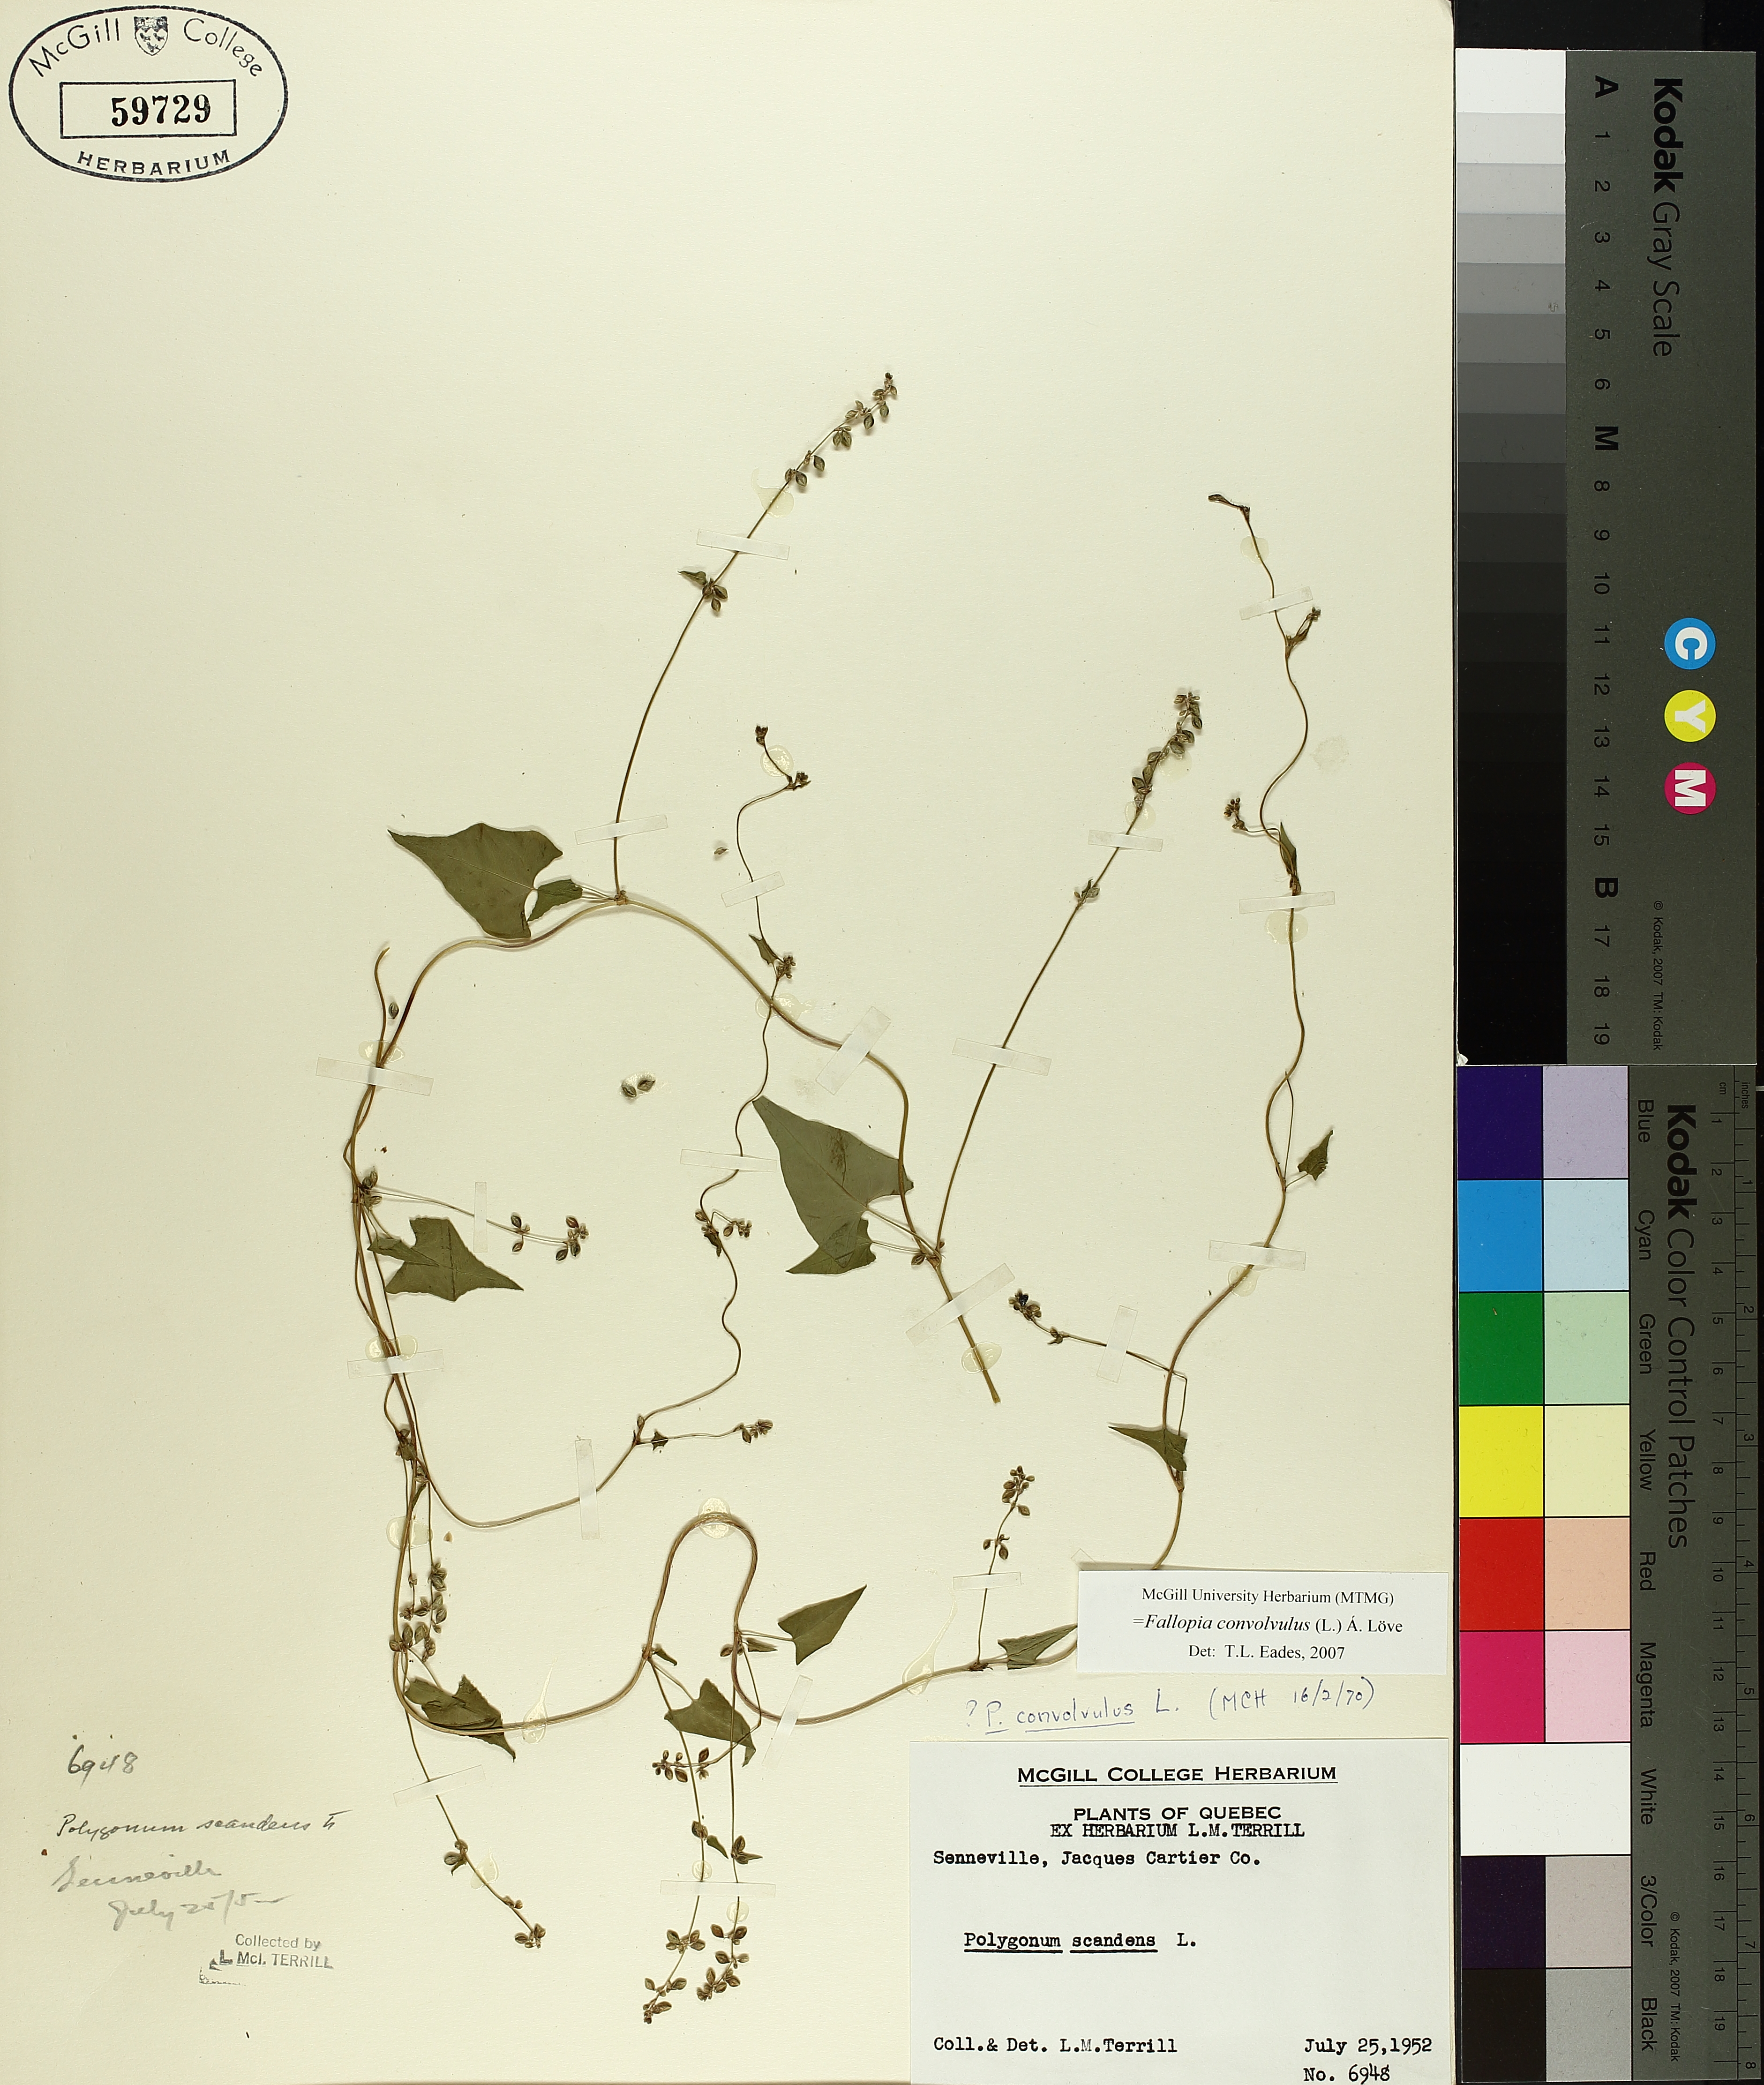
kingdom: Plantae
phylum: Tracheophyta
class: Magnoliopsida
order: Caryophyllales
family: Polygonaceae
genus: Fallopia
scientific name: Fallopia convolvulus
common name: Black bindweed
